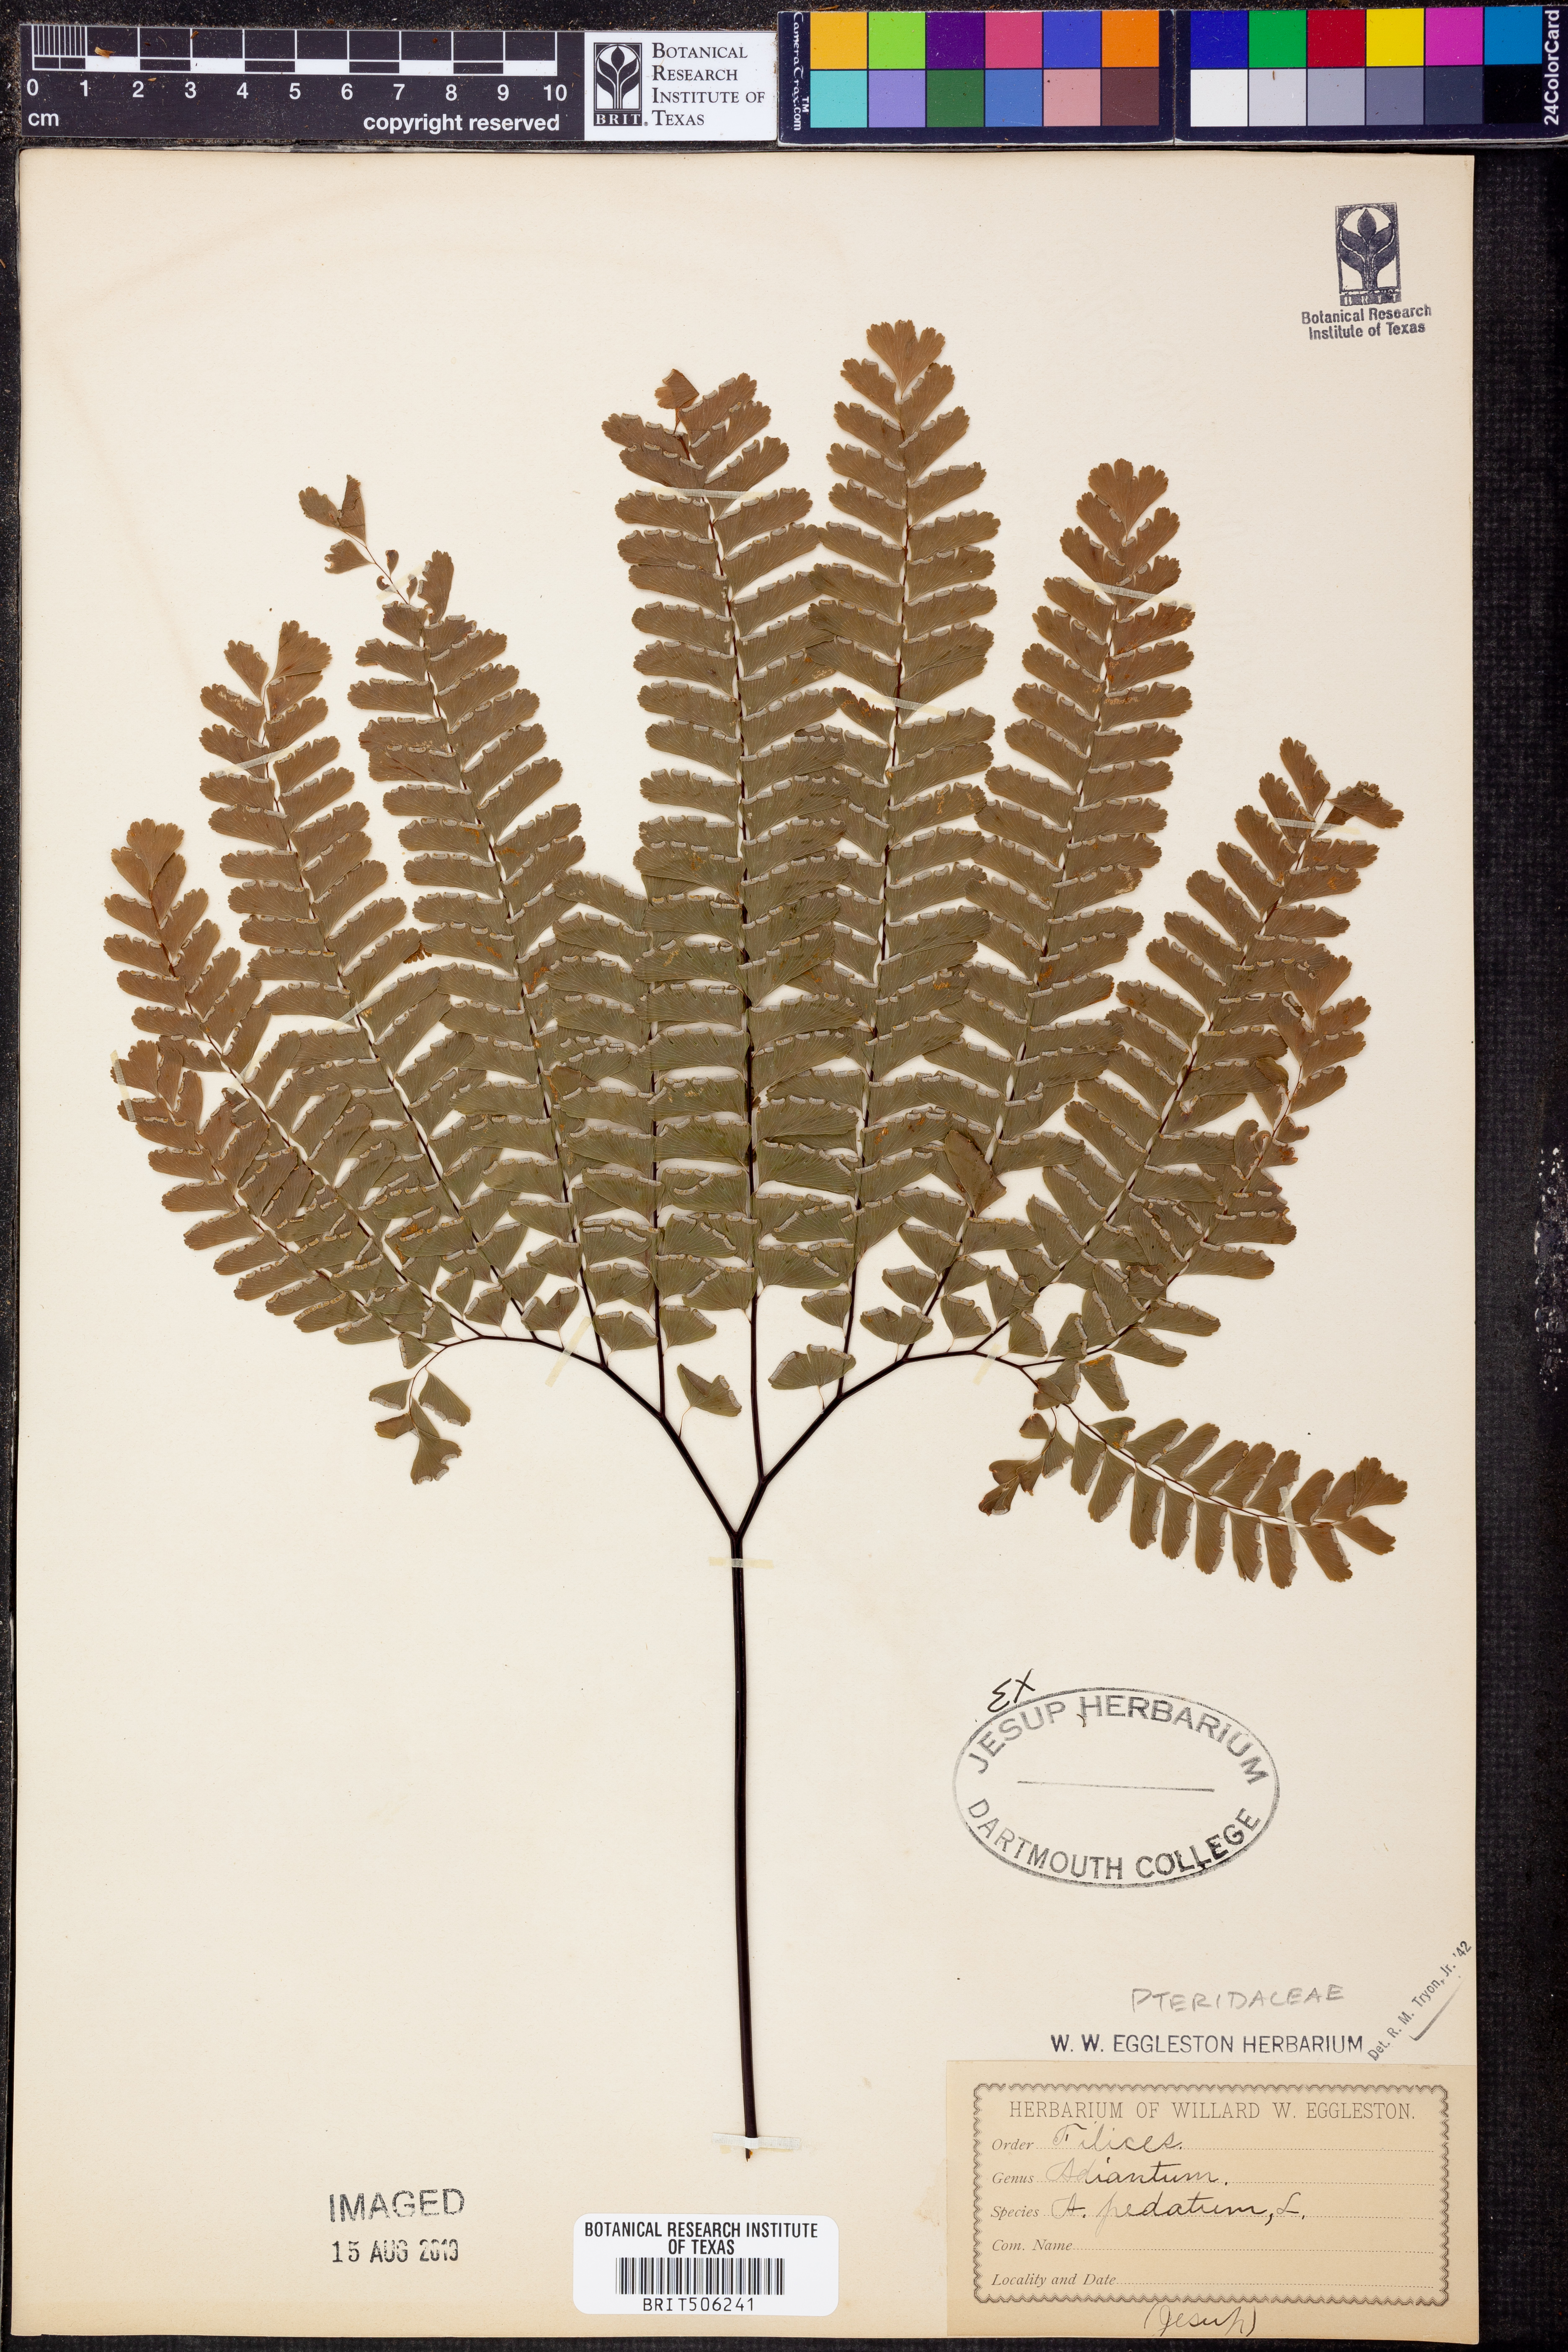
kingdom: Plantae
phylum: Tracheophyta
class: Polypodiopsida
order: Polypodiales
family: Pteridaceae
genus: Adiantum
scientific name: Adiantum pedatum
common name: Five-finger fern
